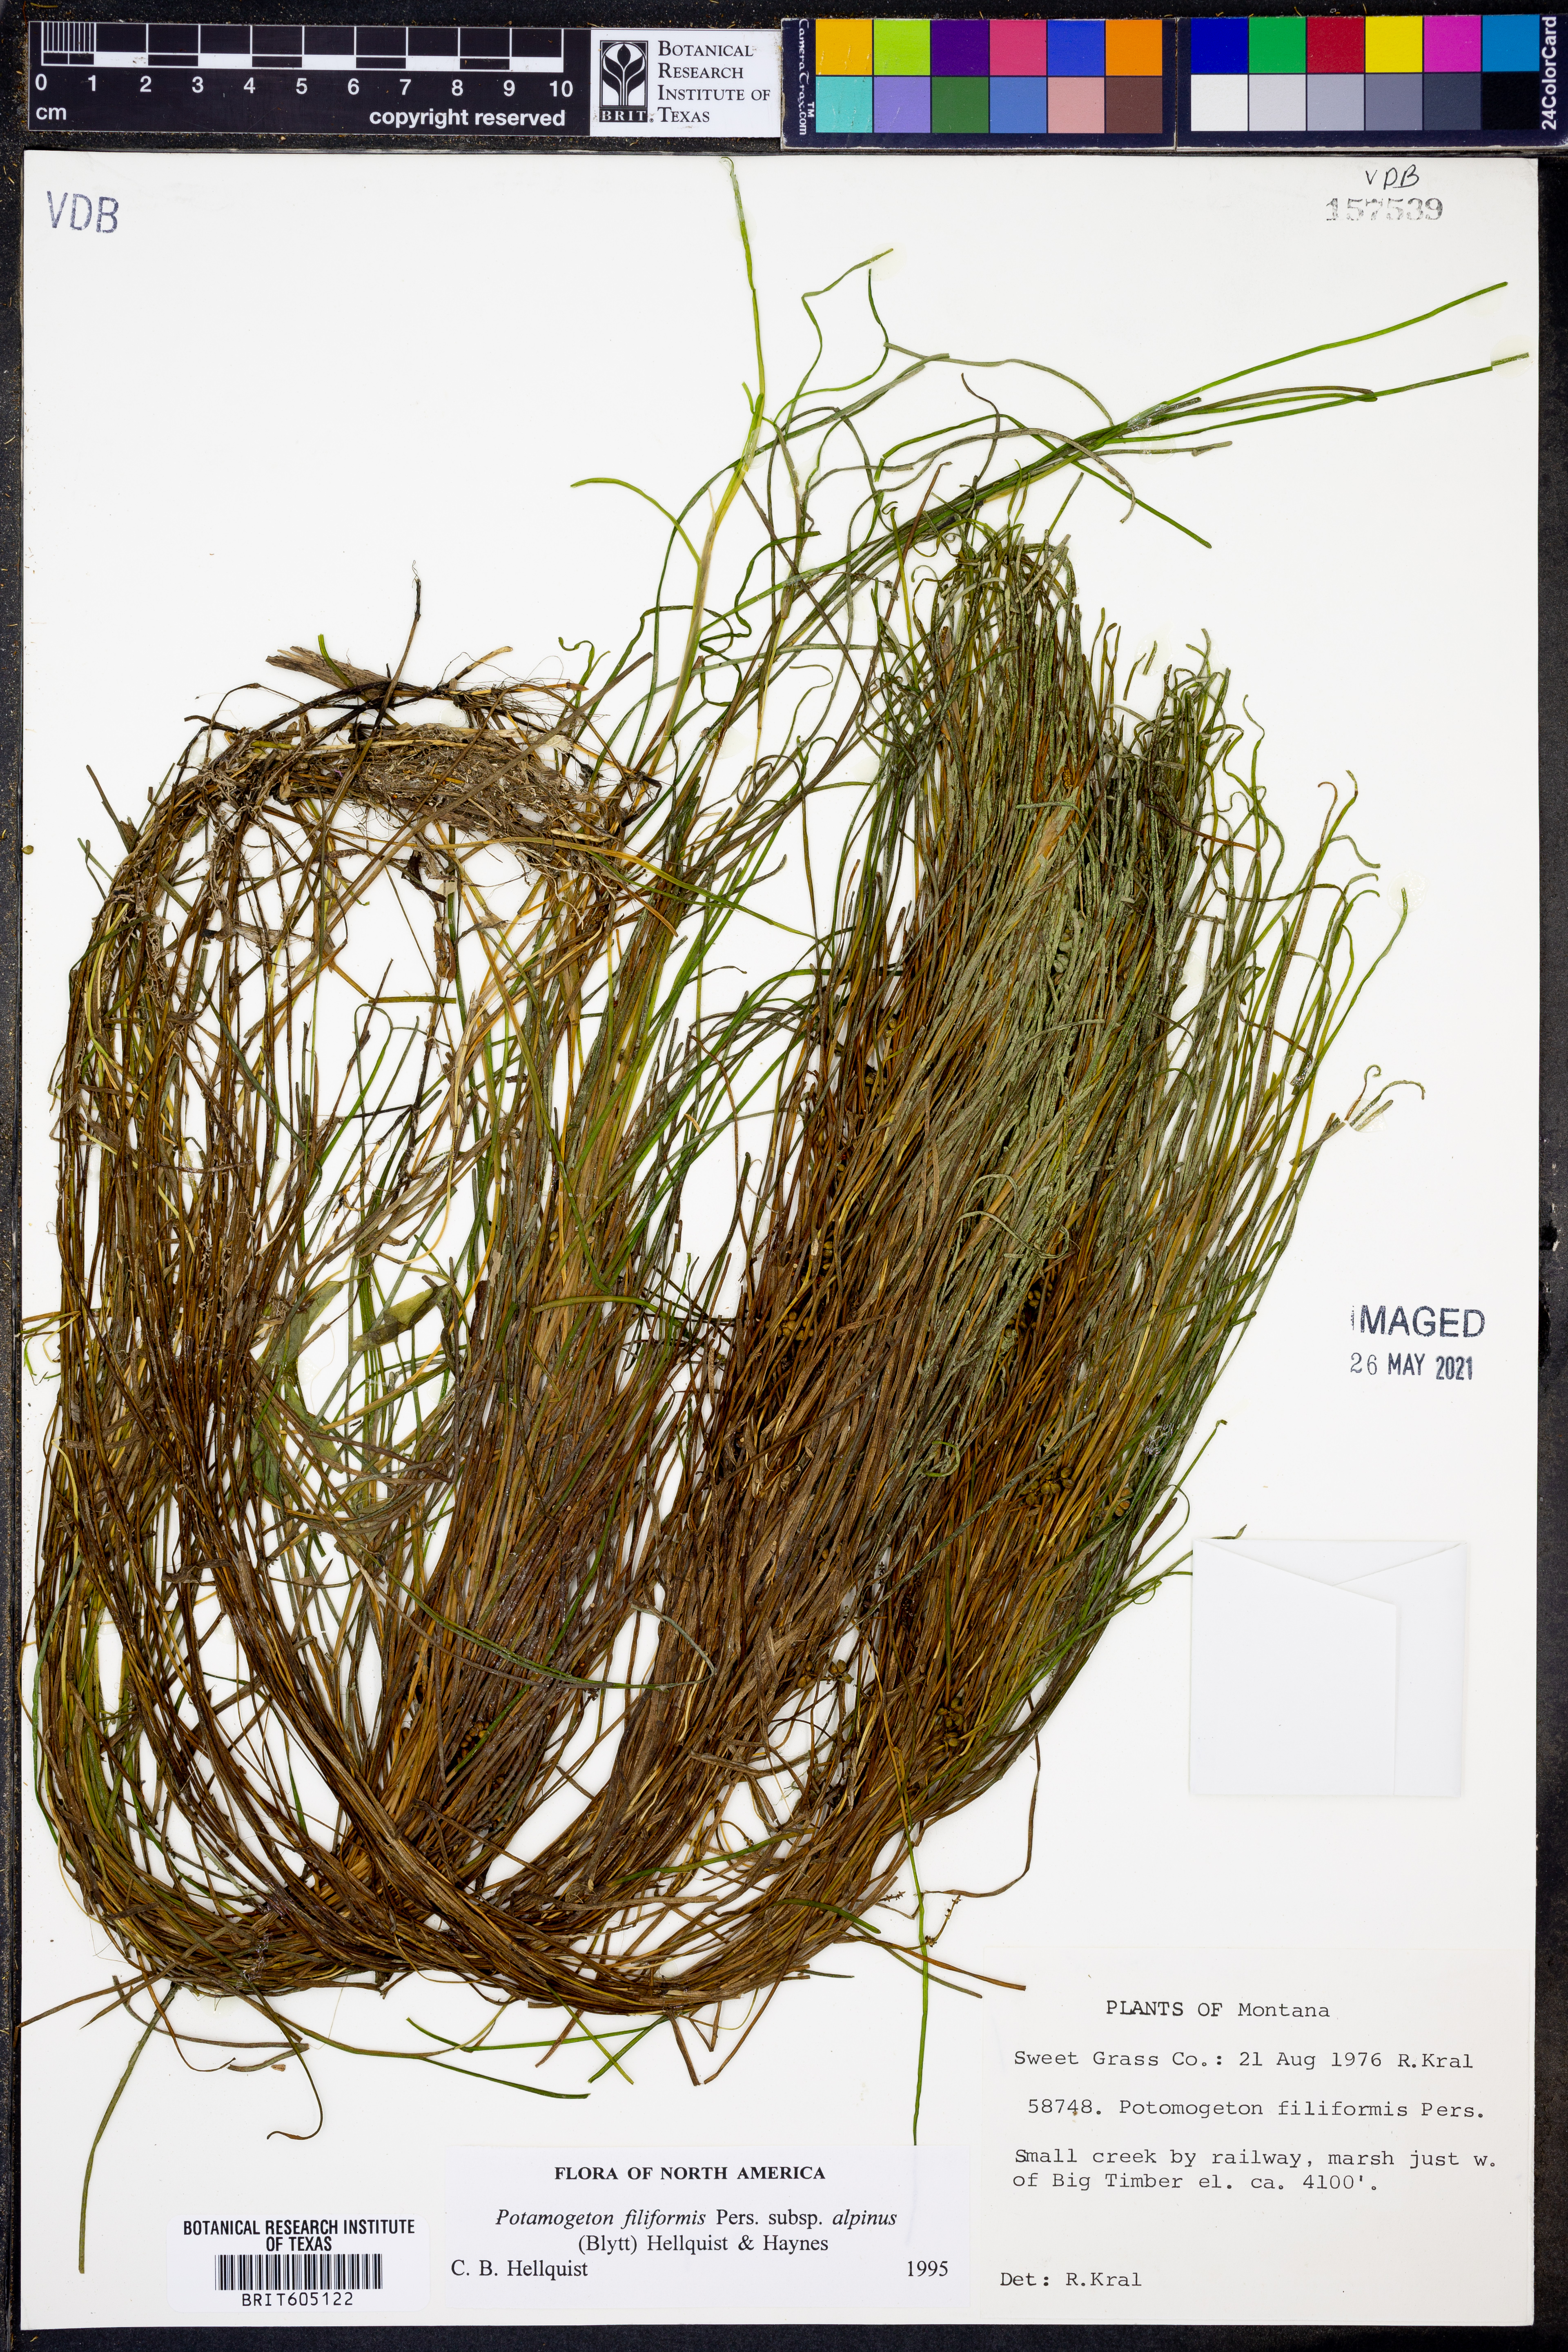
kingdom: Plantae
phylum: Tracheophyta
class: Liliopsida
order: Alismatales
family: Potamogetonaceae
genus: Stuckenia
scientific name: Stuckenia filiformis
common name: Alpine thread-leaved pondweed
